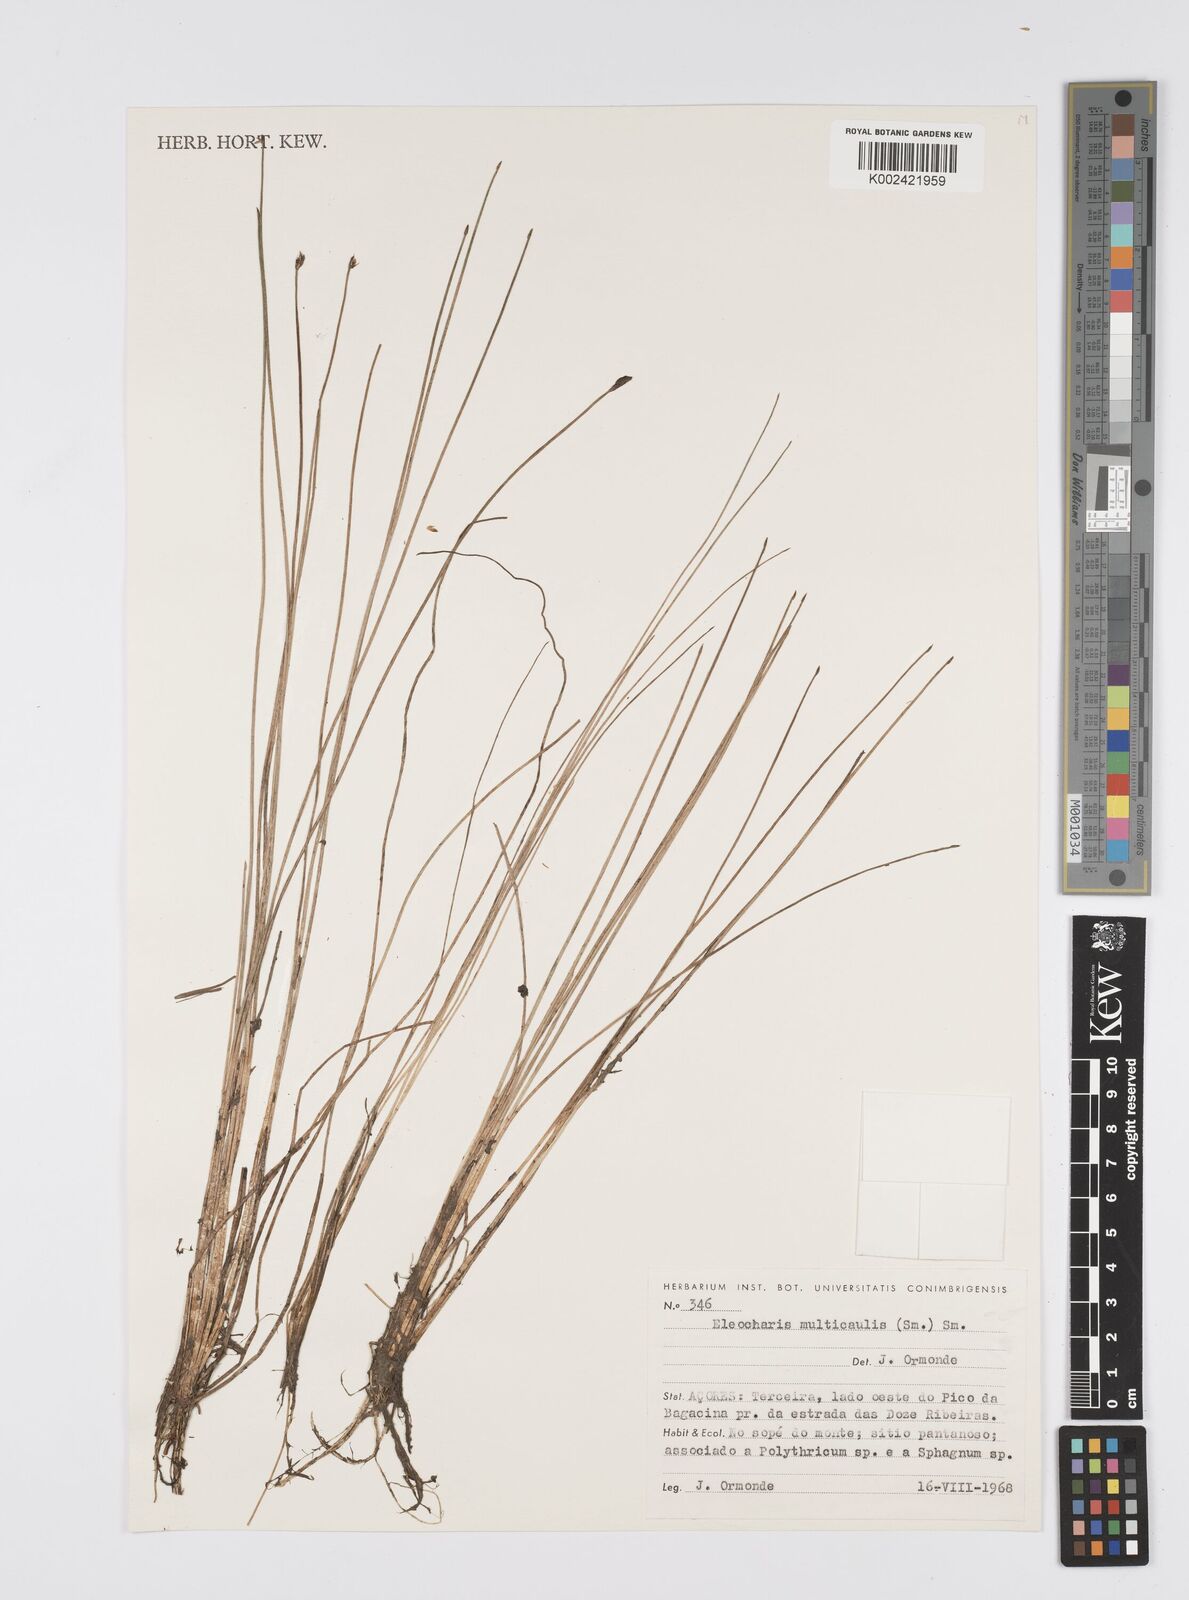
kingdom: Plantae
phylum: Tracheophyta
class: Liliopsida
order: Poales
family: Cyperaceae
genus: Eleocharis
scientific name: Eleocharis multicaulis
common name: Many-stalked spike-rush
